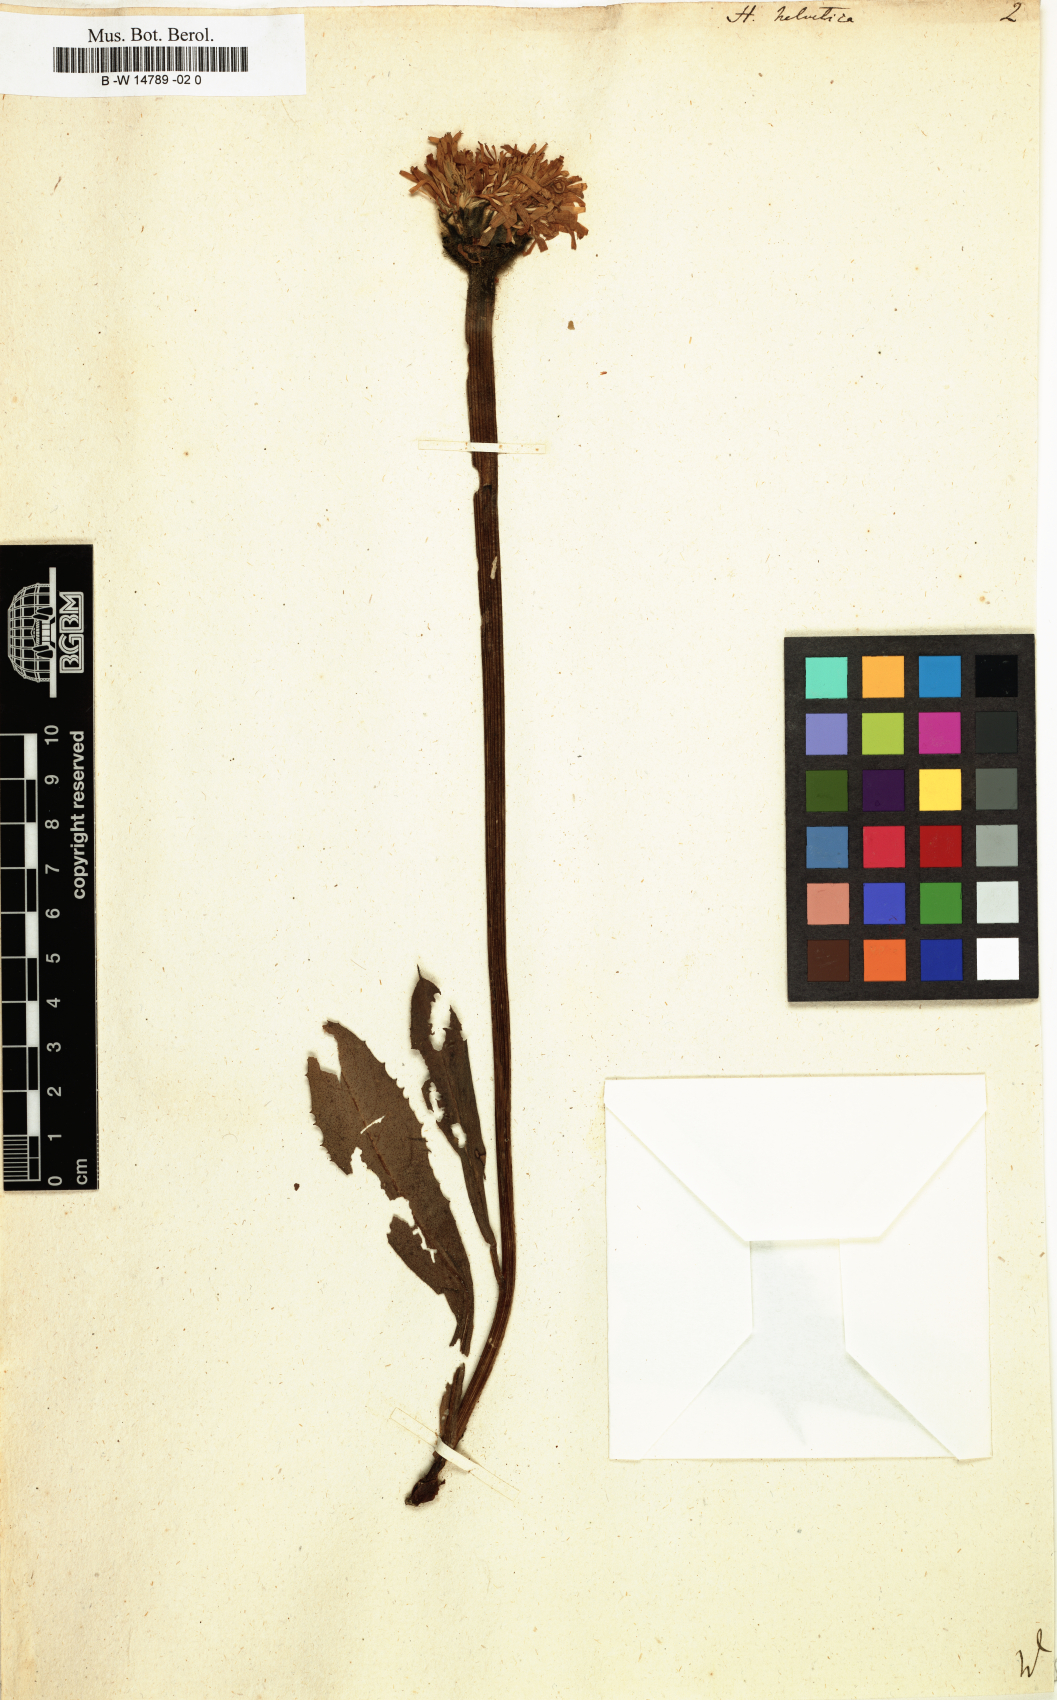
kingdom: Plantae
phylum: Tracheophyta
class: Magnoliopsida
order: Asterales
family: Asteraceae
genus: Trommsdorffia
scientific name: Trommsdorffia uniflora
